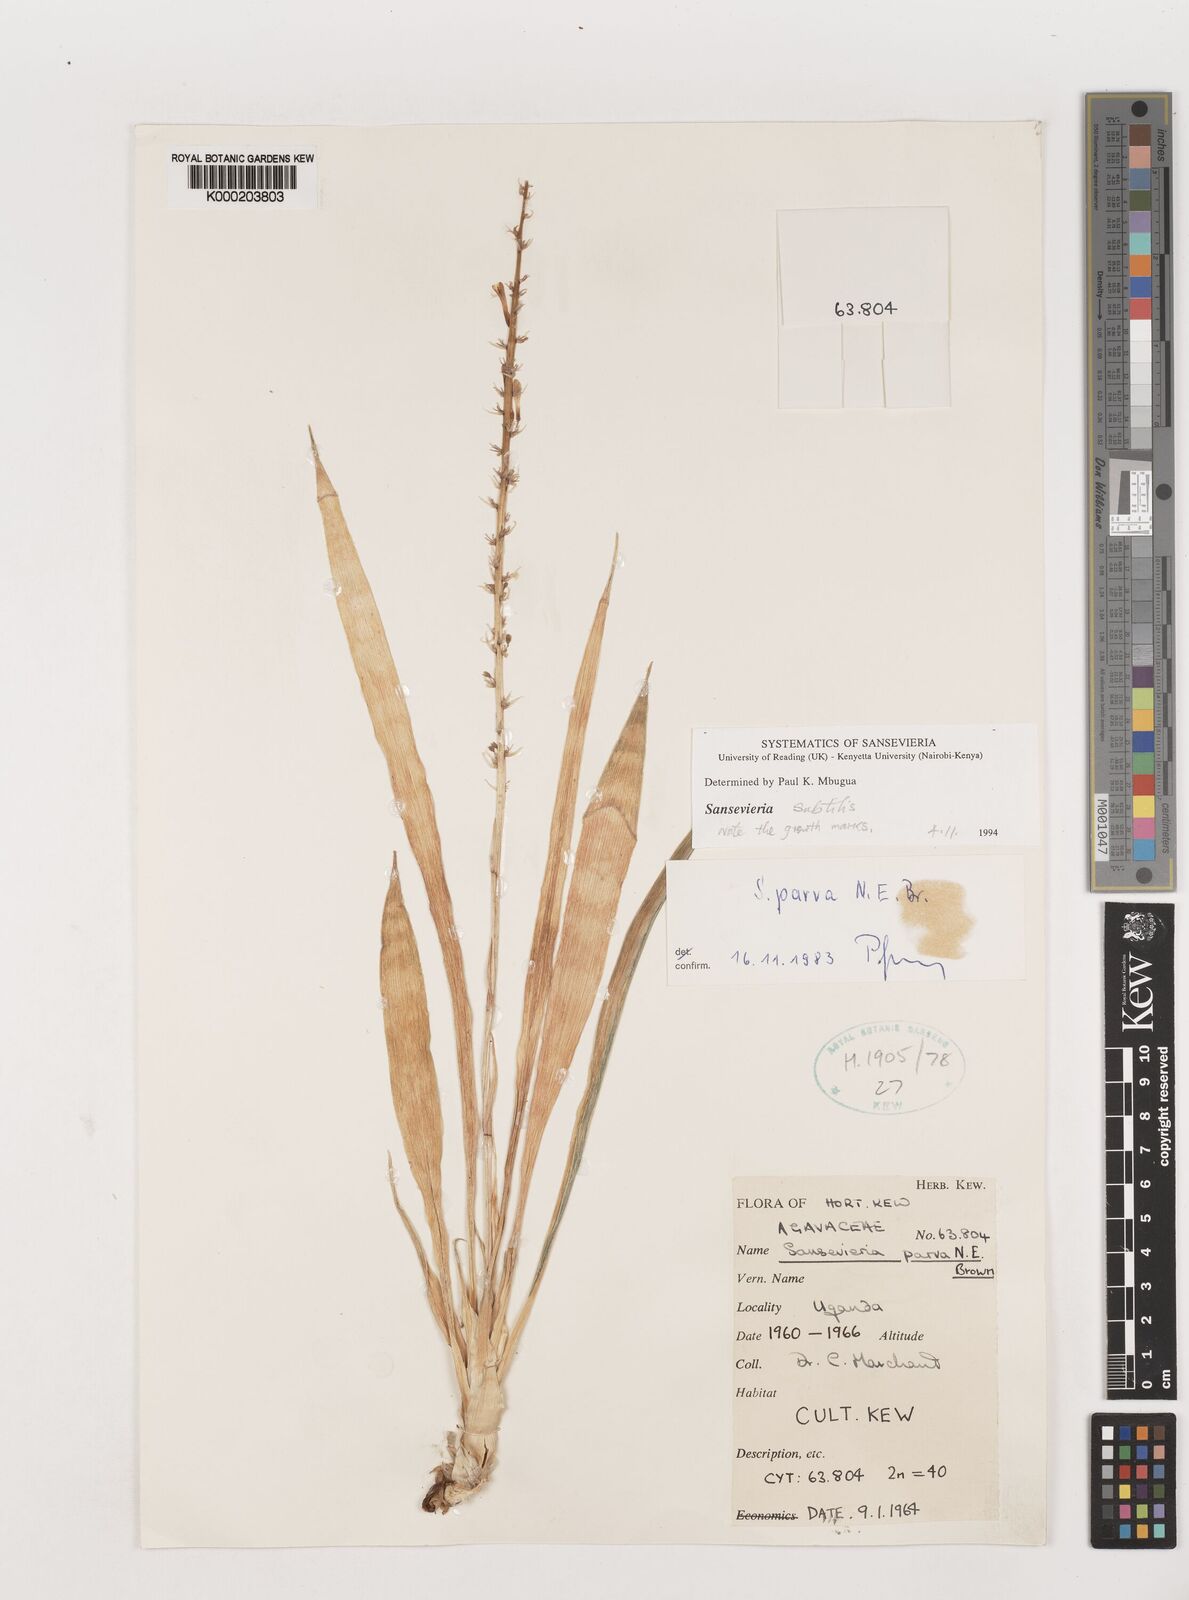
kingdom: Plantae
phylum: Tracheophyta
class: Liliopsida
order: Asparagales
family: Asparagaceae
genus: Dracaena
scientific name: Dracaena parva
